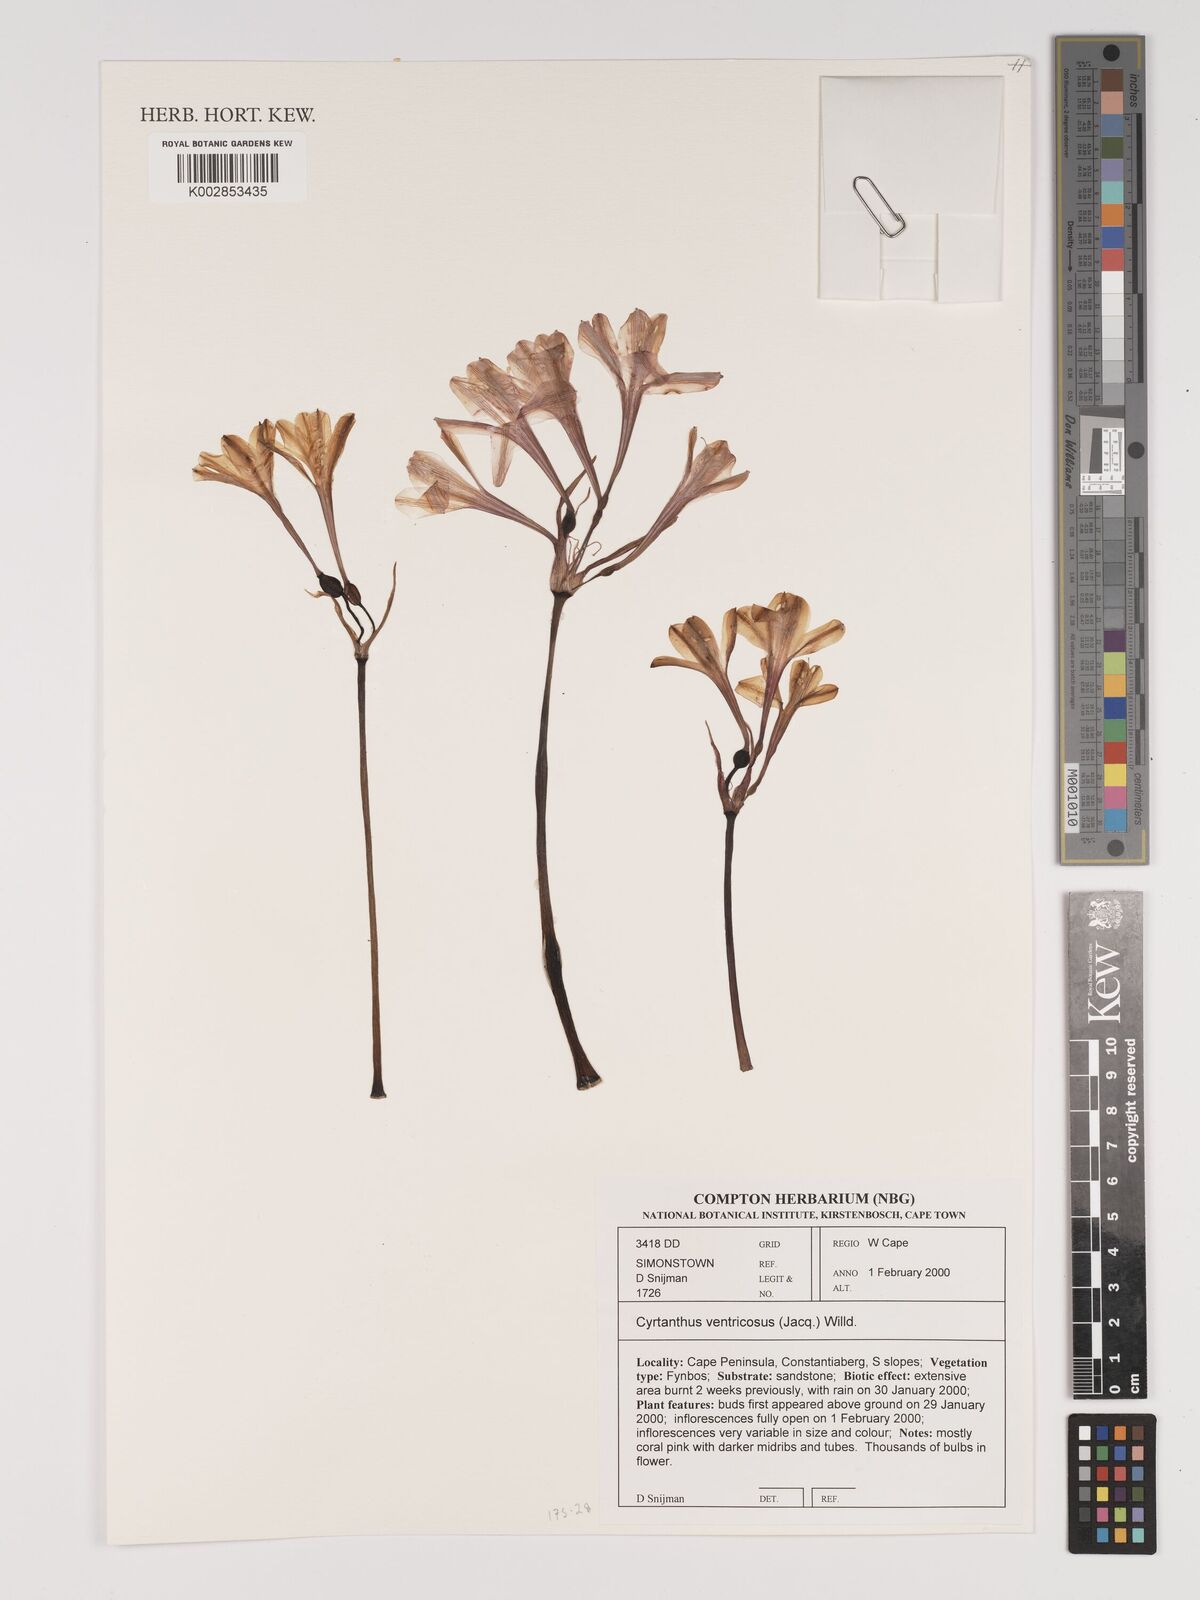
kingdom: Plantae
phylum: Tracheophyta
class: Liliopsida
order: Asparagales
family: Amaryllidaceae
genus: Cyrtanthus
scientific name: Cyrtanthus ventricosus
